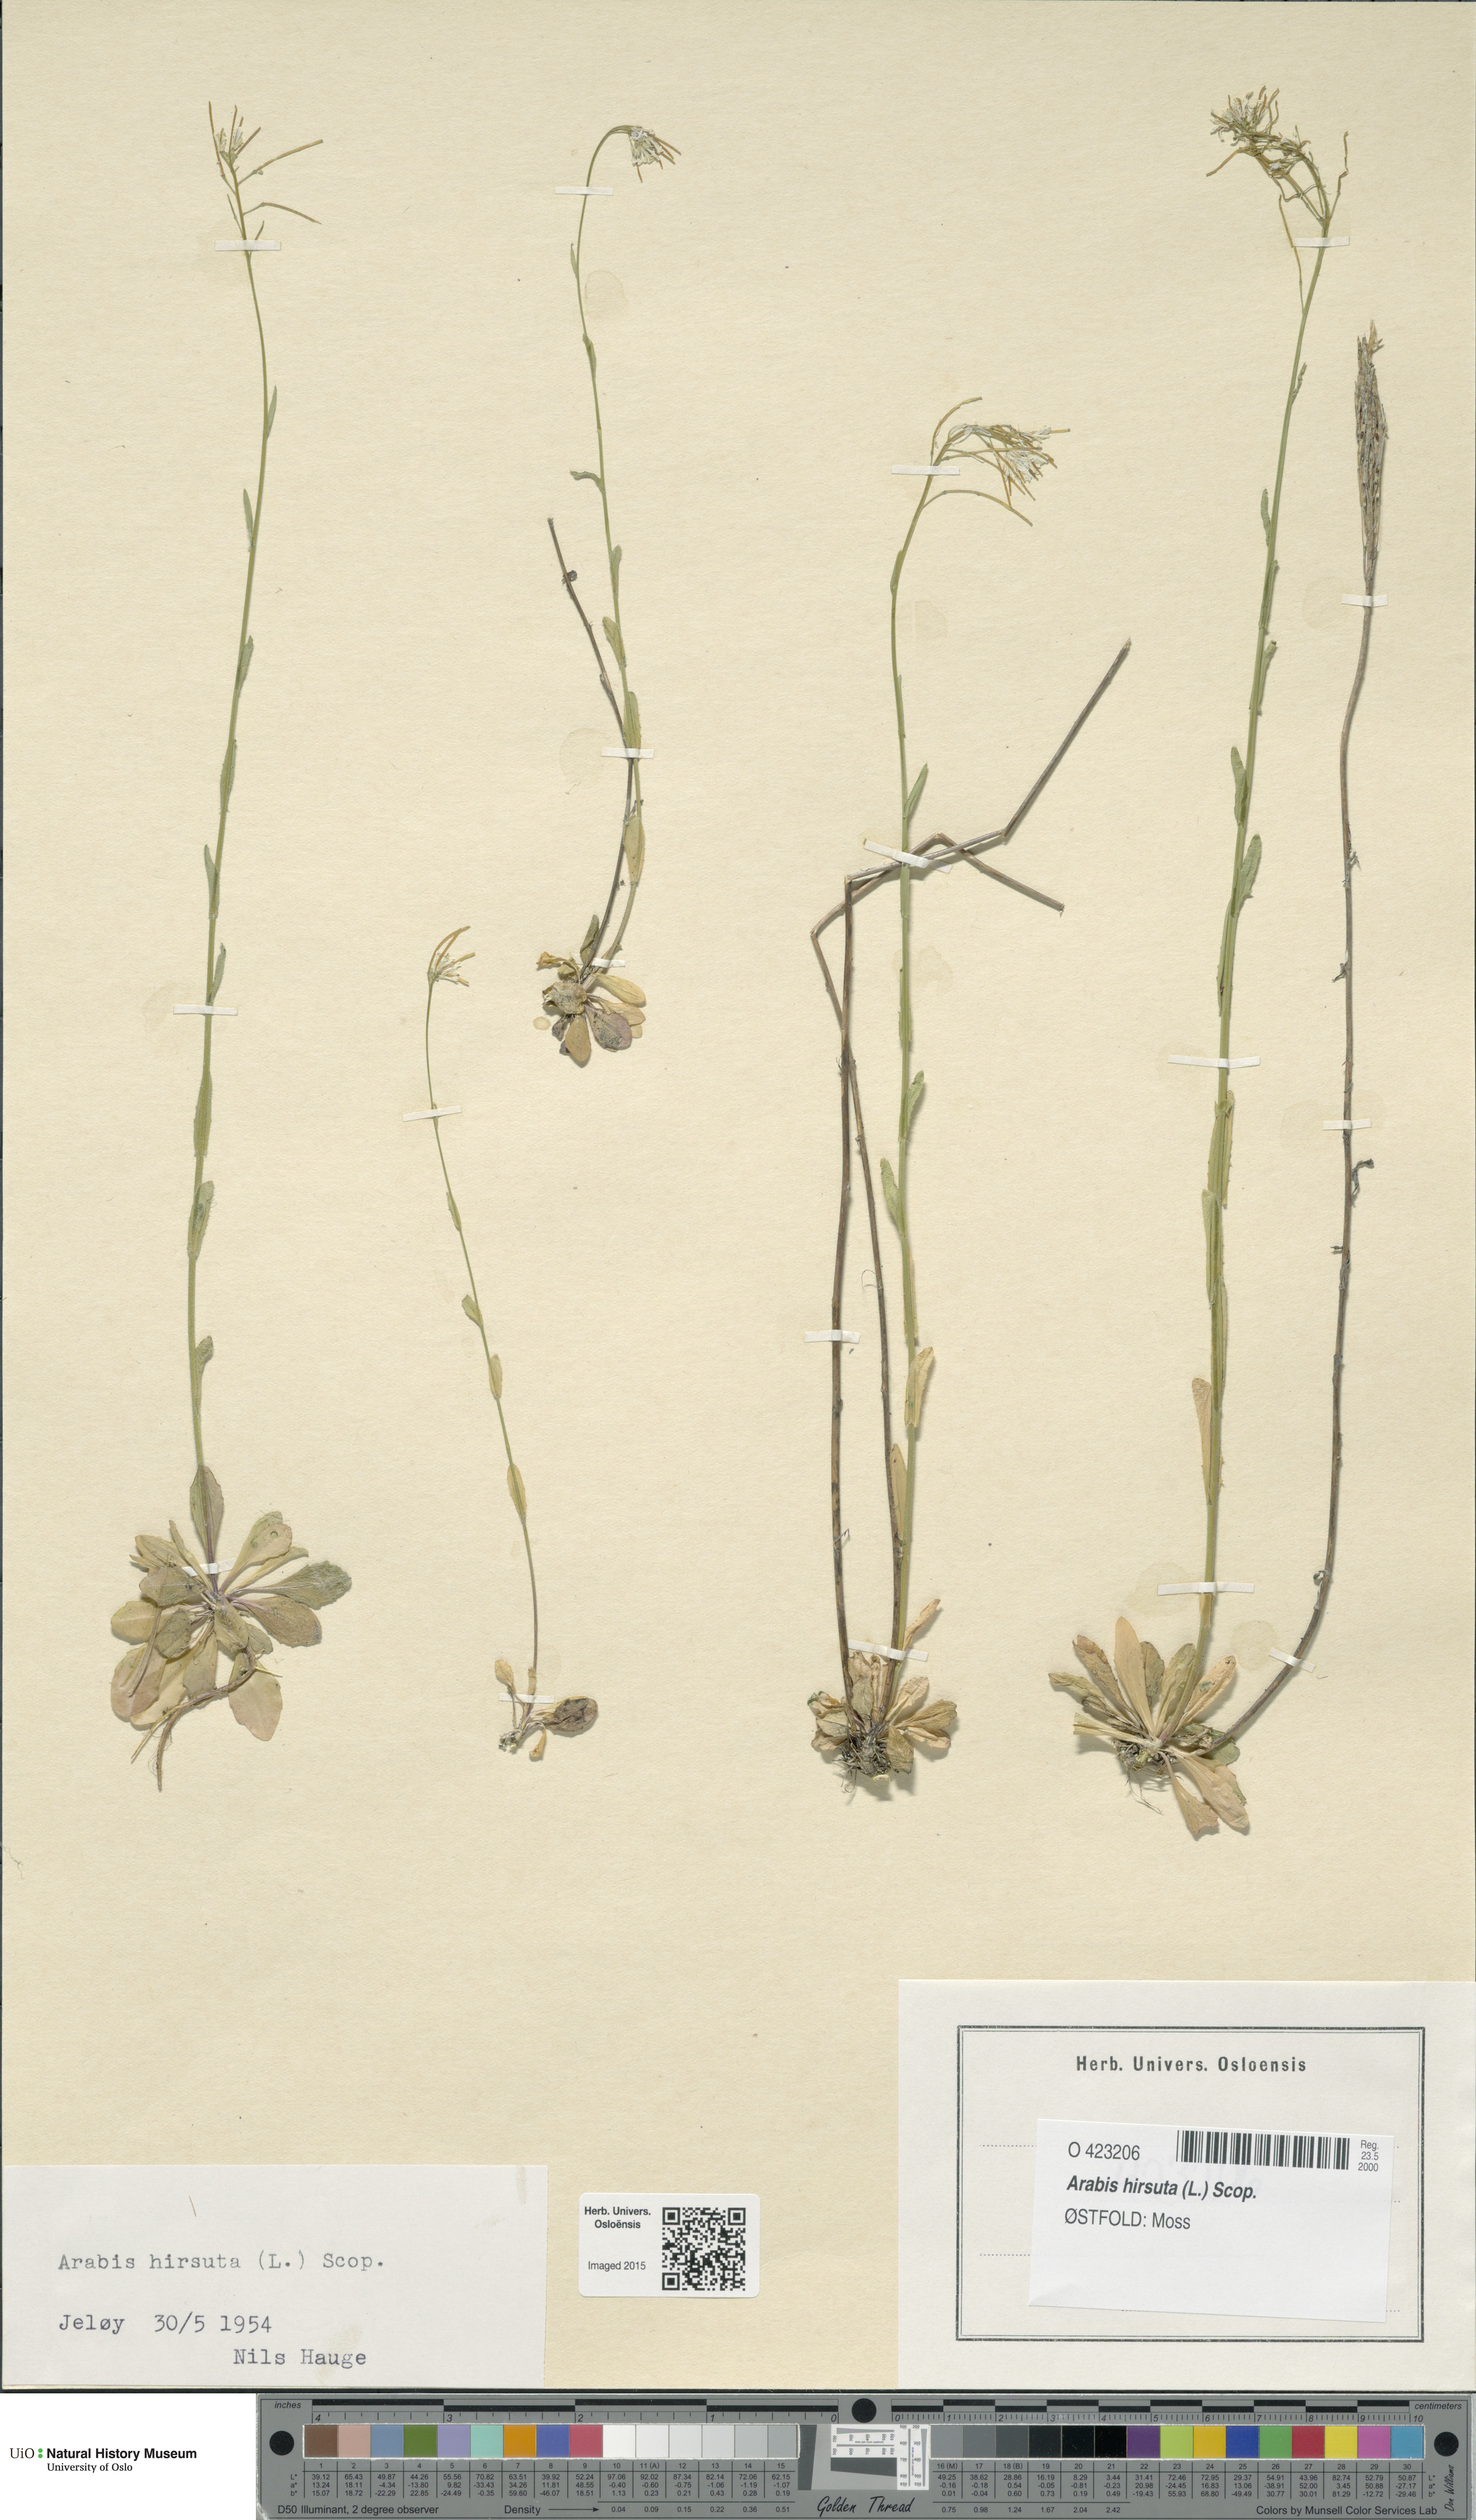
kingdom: Plantae
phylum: Tracheophyta
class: Magnoliopsida
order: Brassicales
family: Brassicaceae
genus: Arabis
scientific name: Arabis hirsuta
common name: Hairy rock-cress
